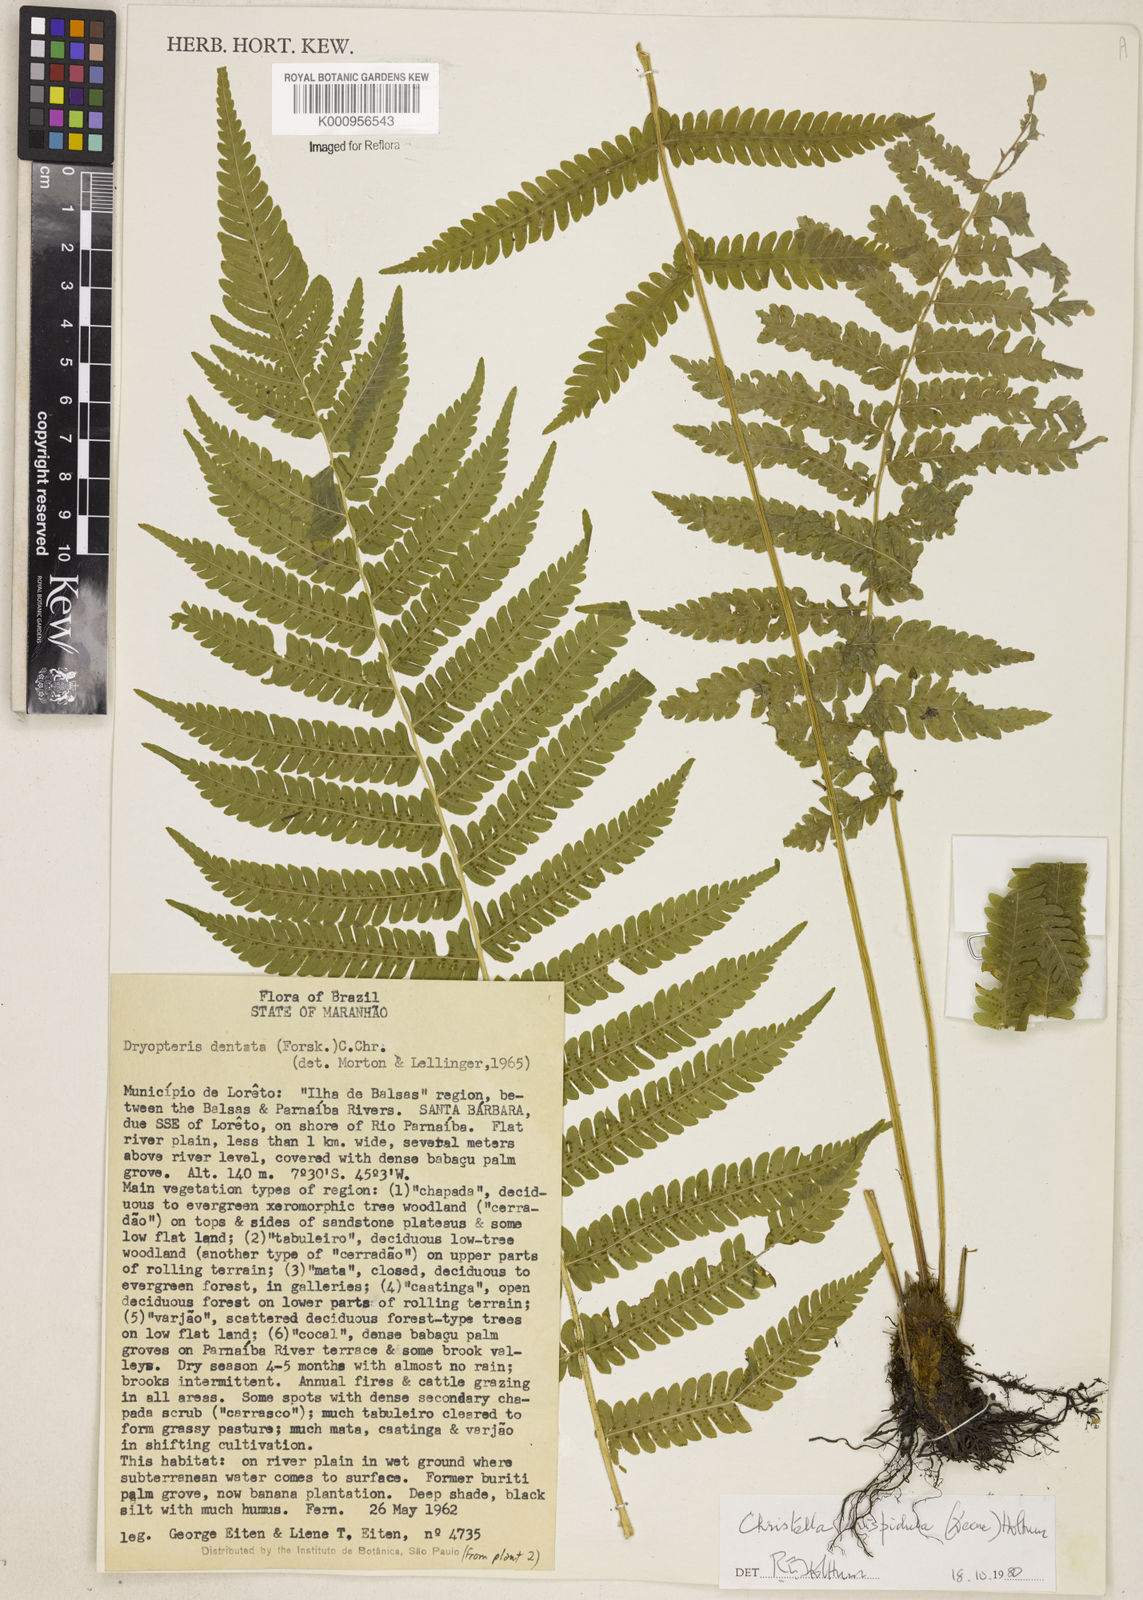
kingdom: Plantae
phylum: Tracheophyta
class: Polypodiopsida
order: Polypodiales
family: Thelypteridaceae
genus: Christella
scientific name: Christella hispidula
